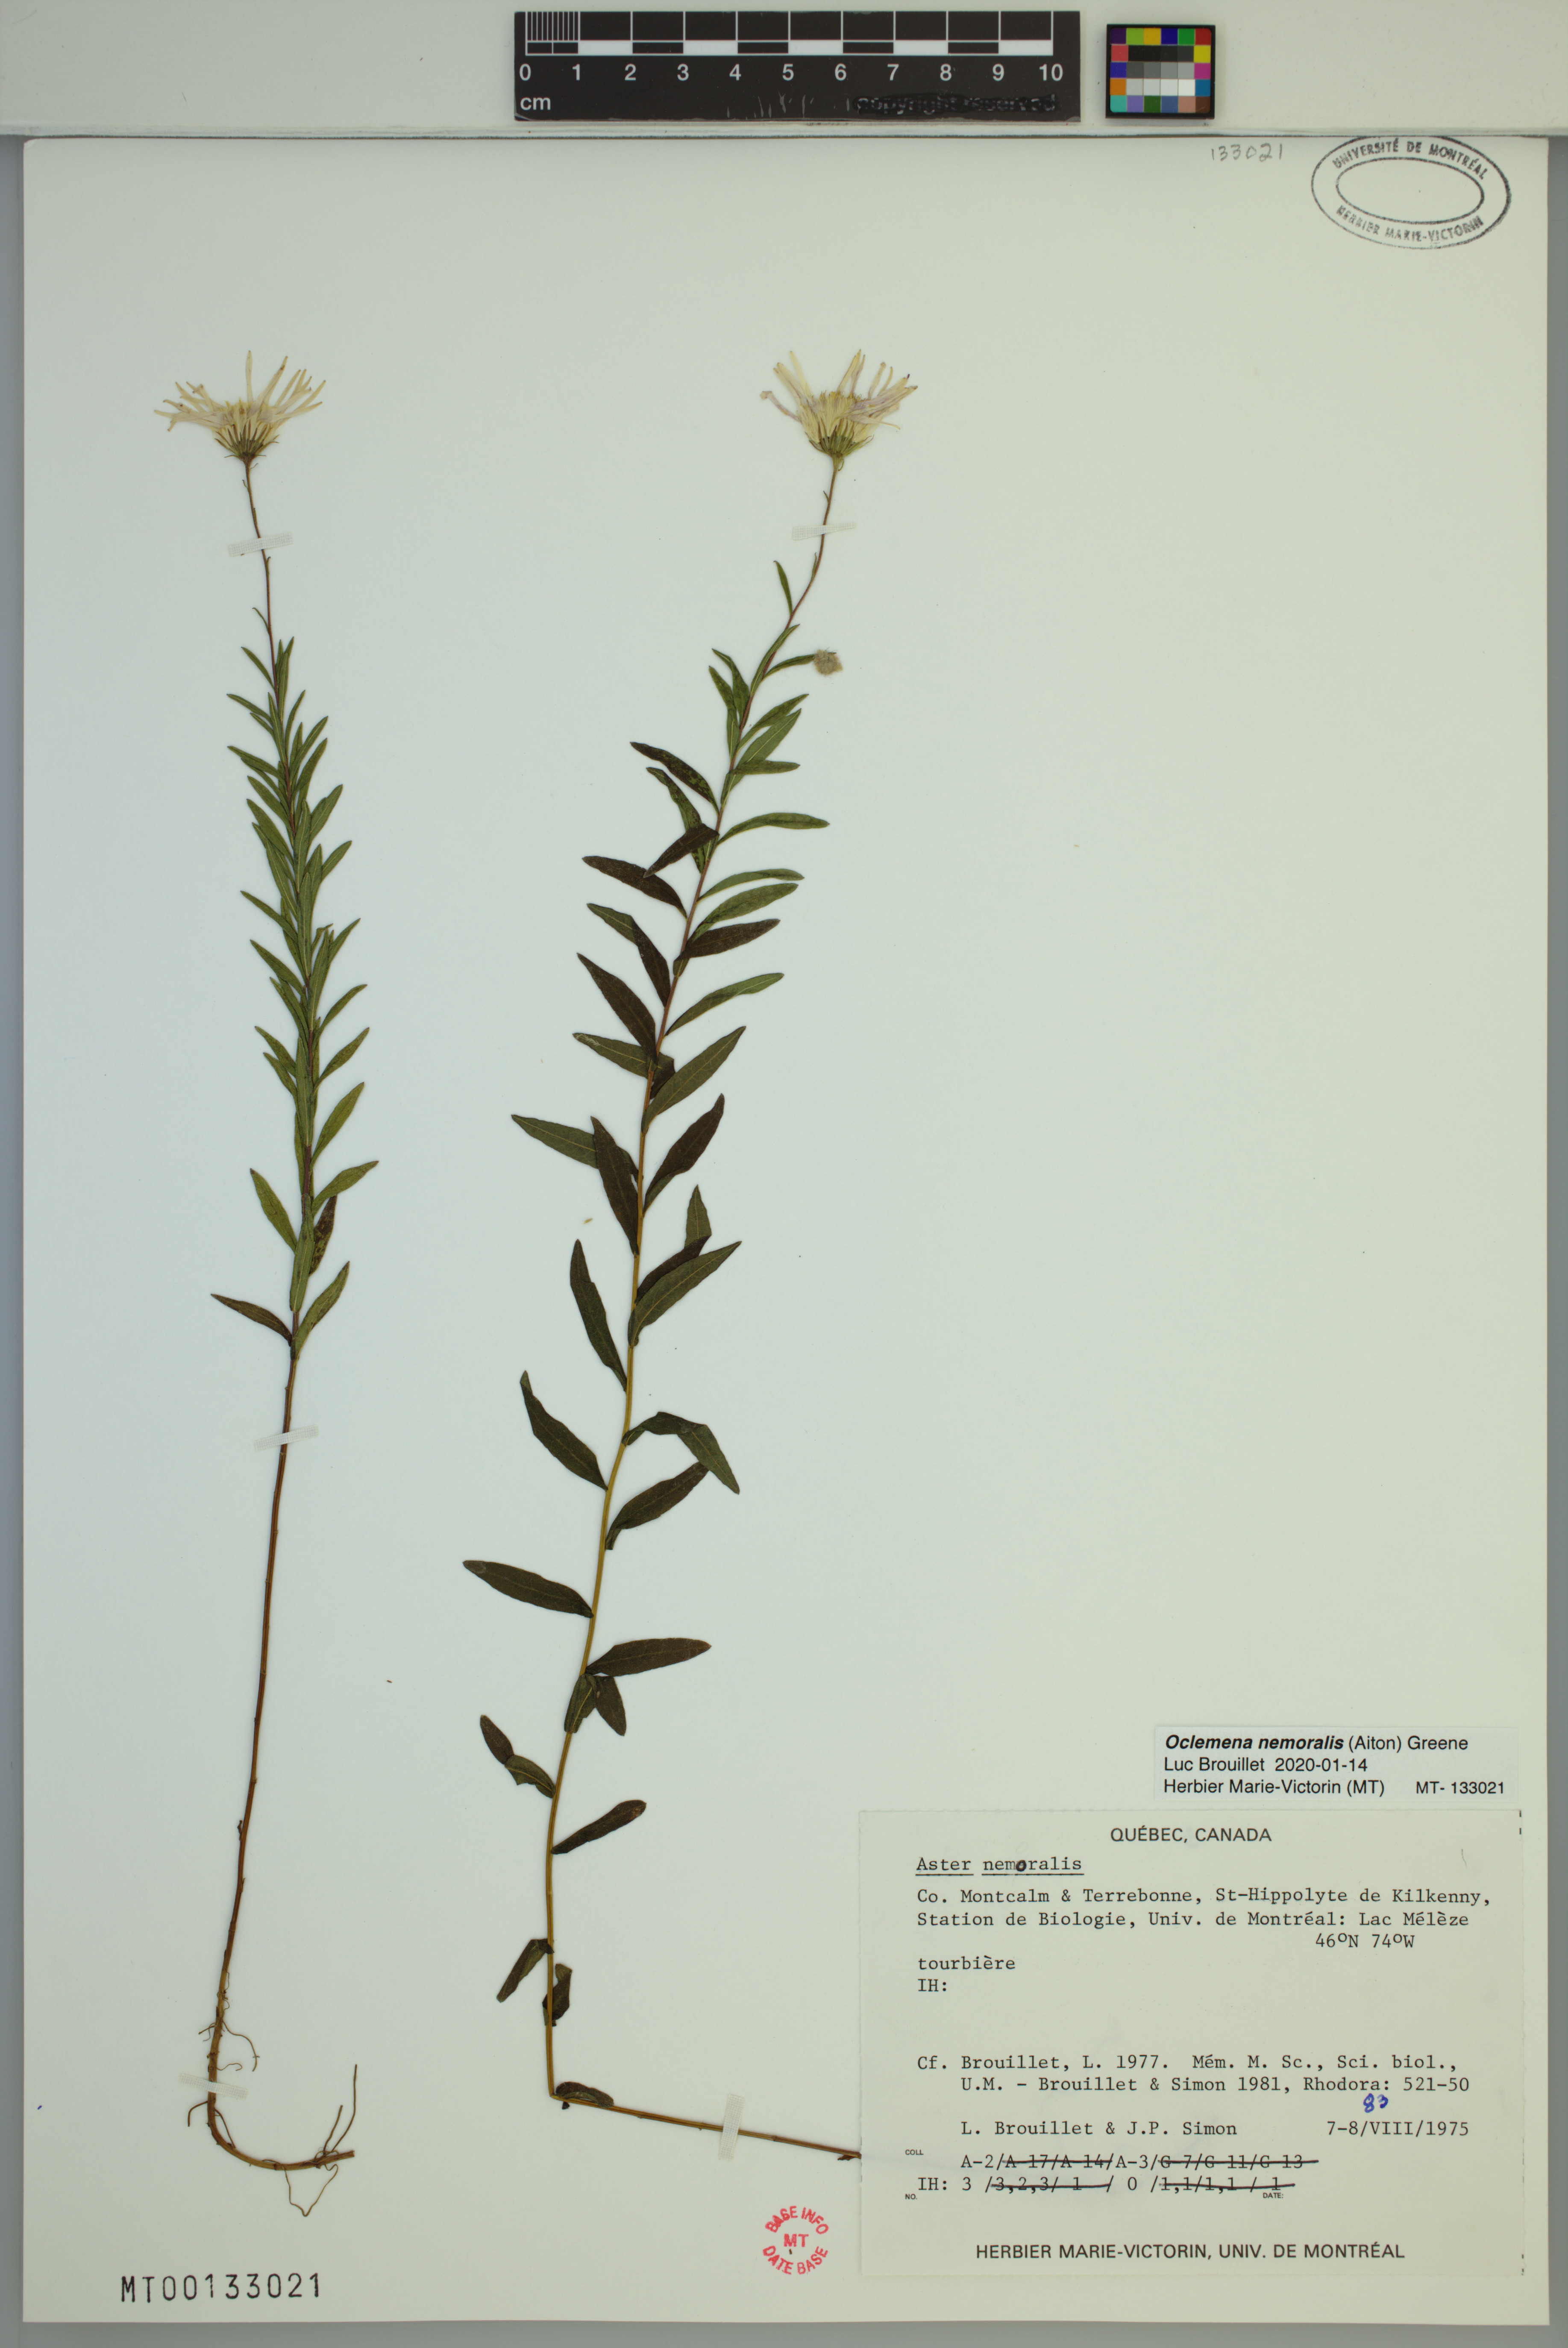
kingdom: Plantae
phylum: Tracheophyta
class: Magnoliopsida
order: Asterales
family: Asteraceae
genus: Oclemena
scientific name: Oclemena nemoralis
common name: Bog aster
